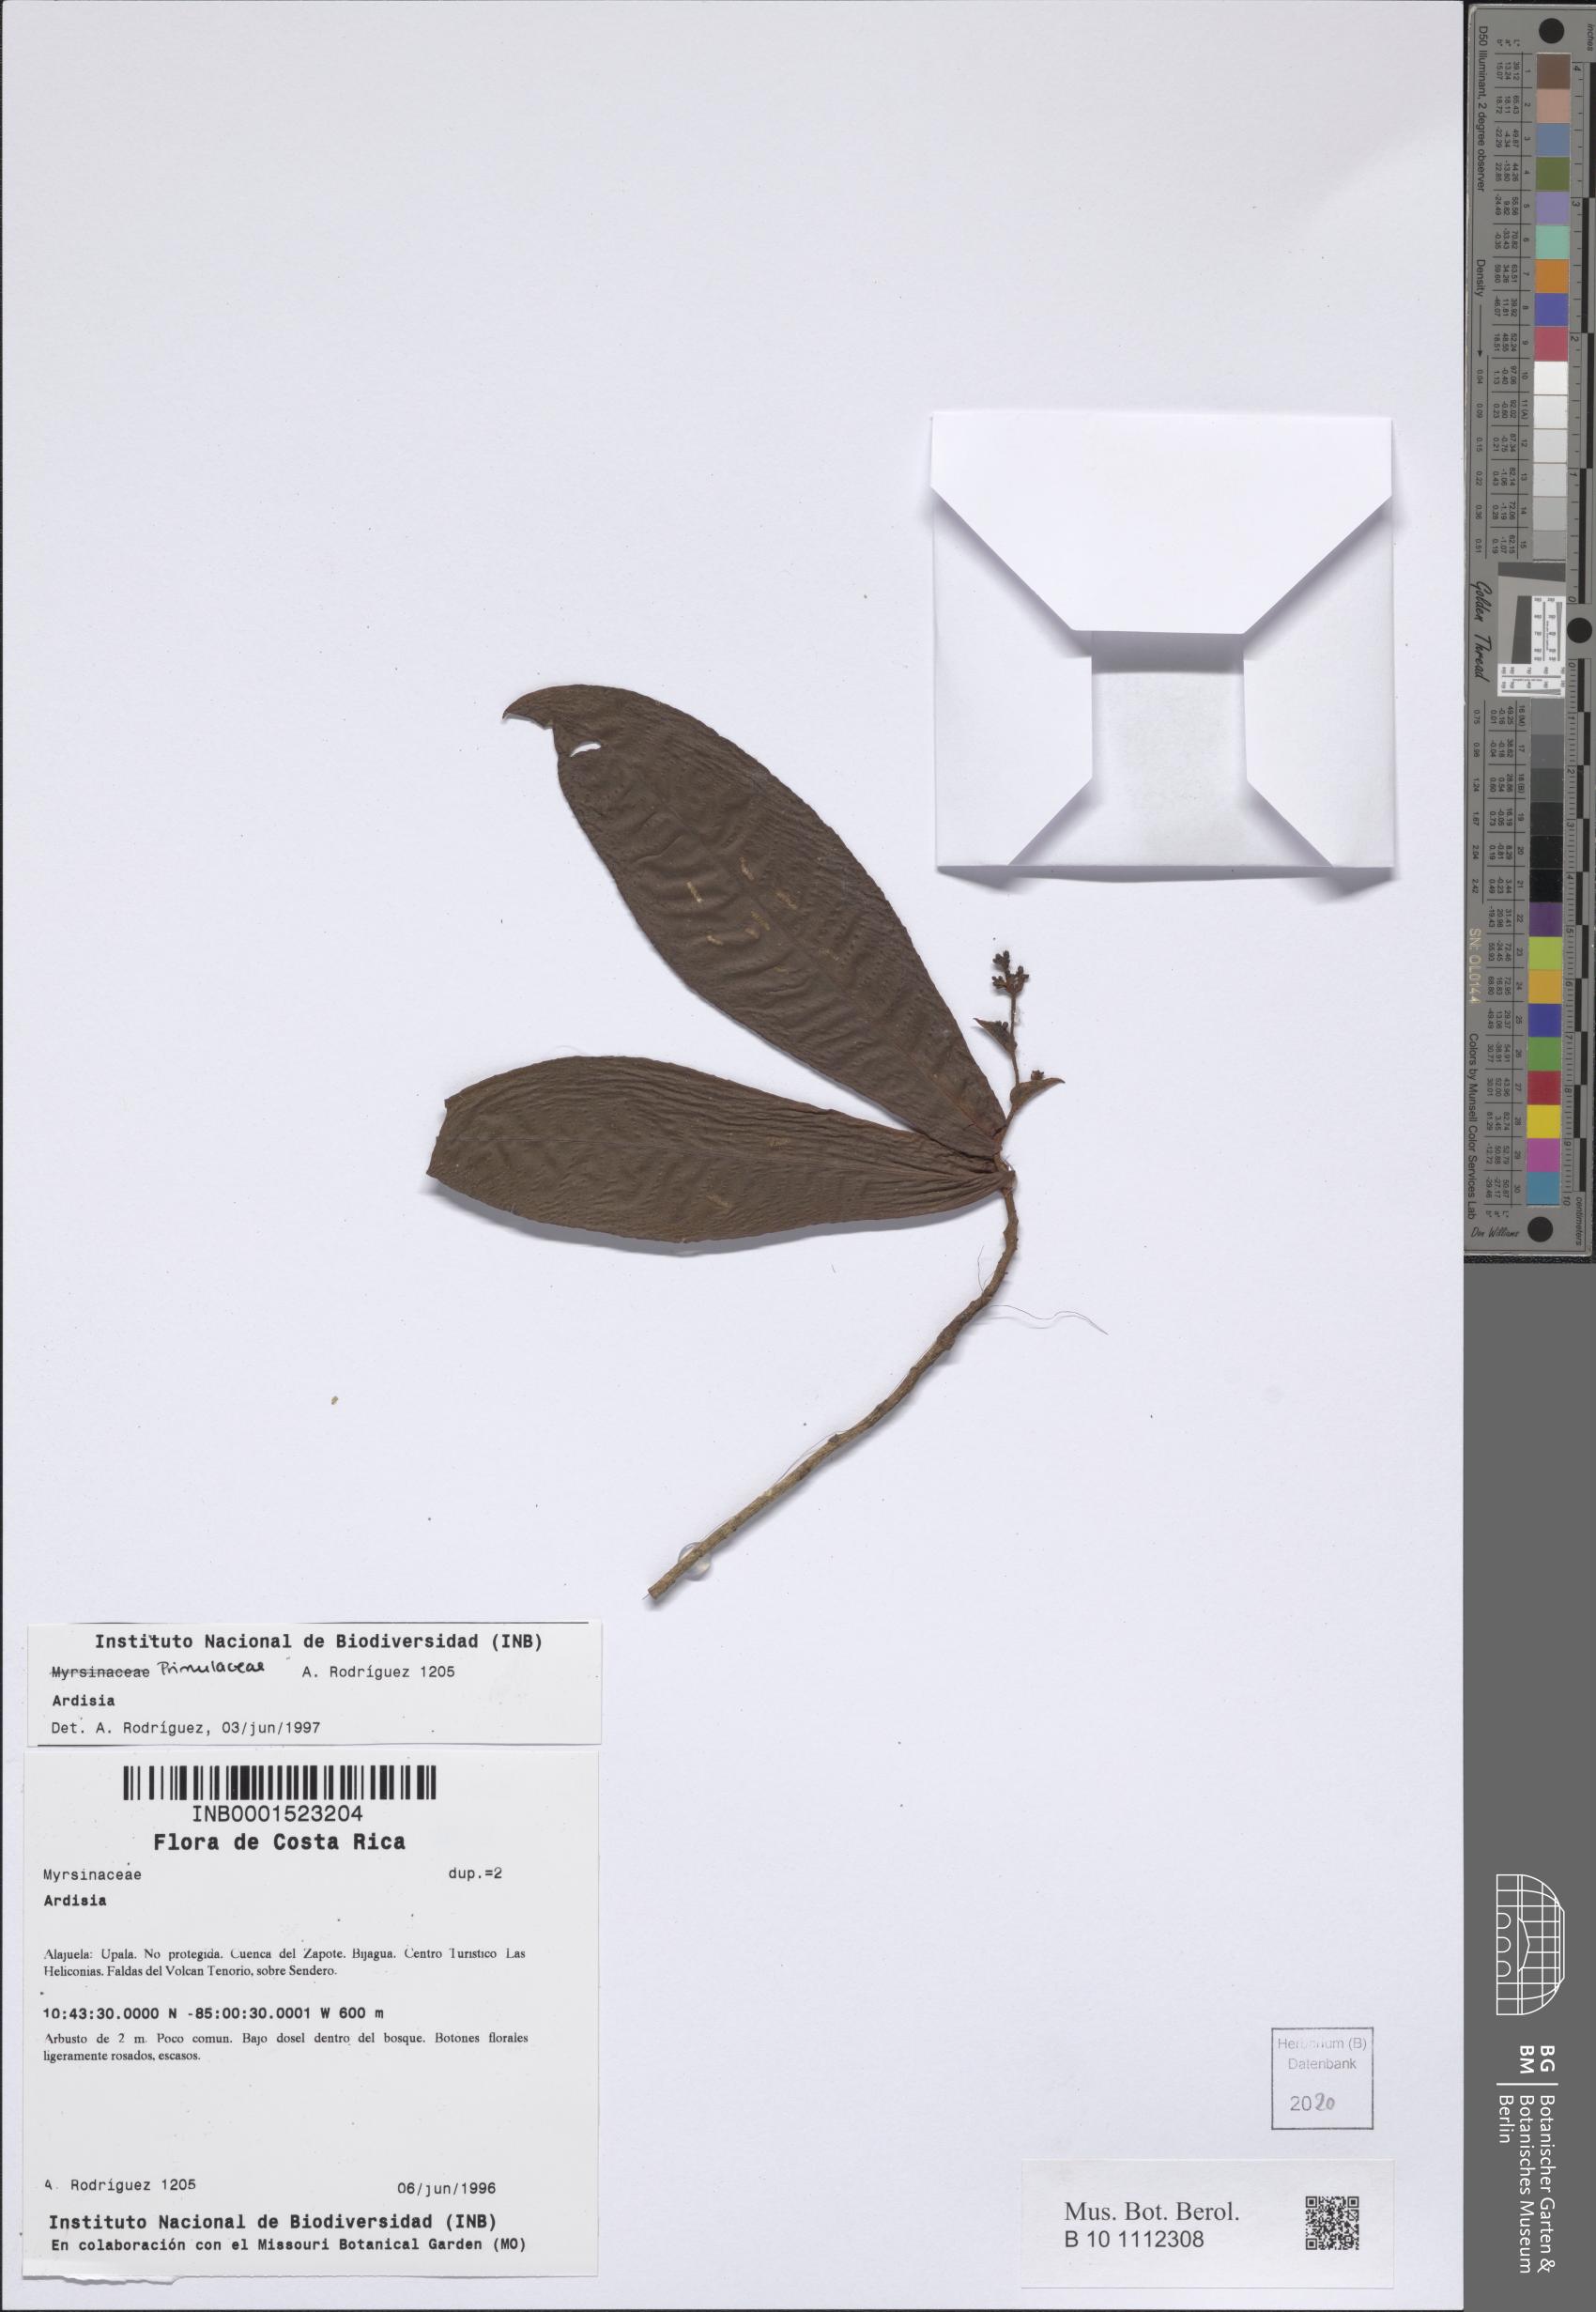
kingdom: Plantae
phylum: Tracheophyta
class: Magnoliopsida
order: Ericales
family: Primulaceae
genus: Ardisia
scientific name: Ardisia
